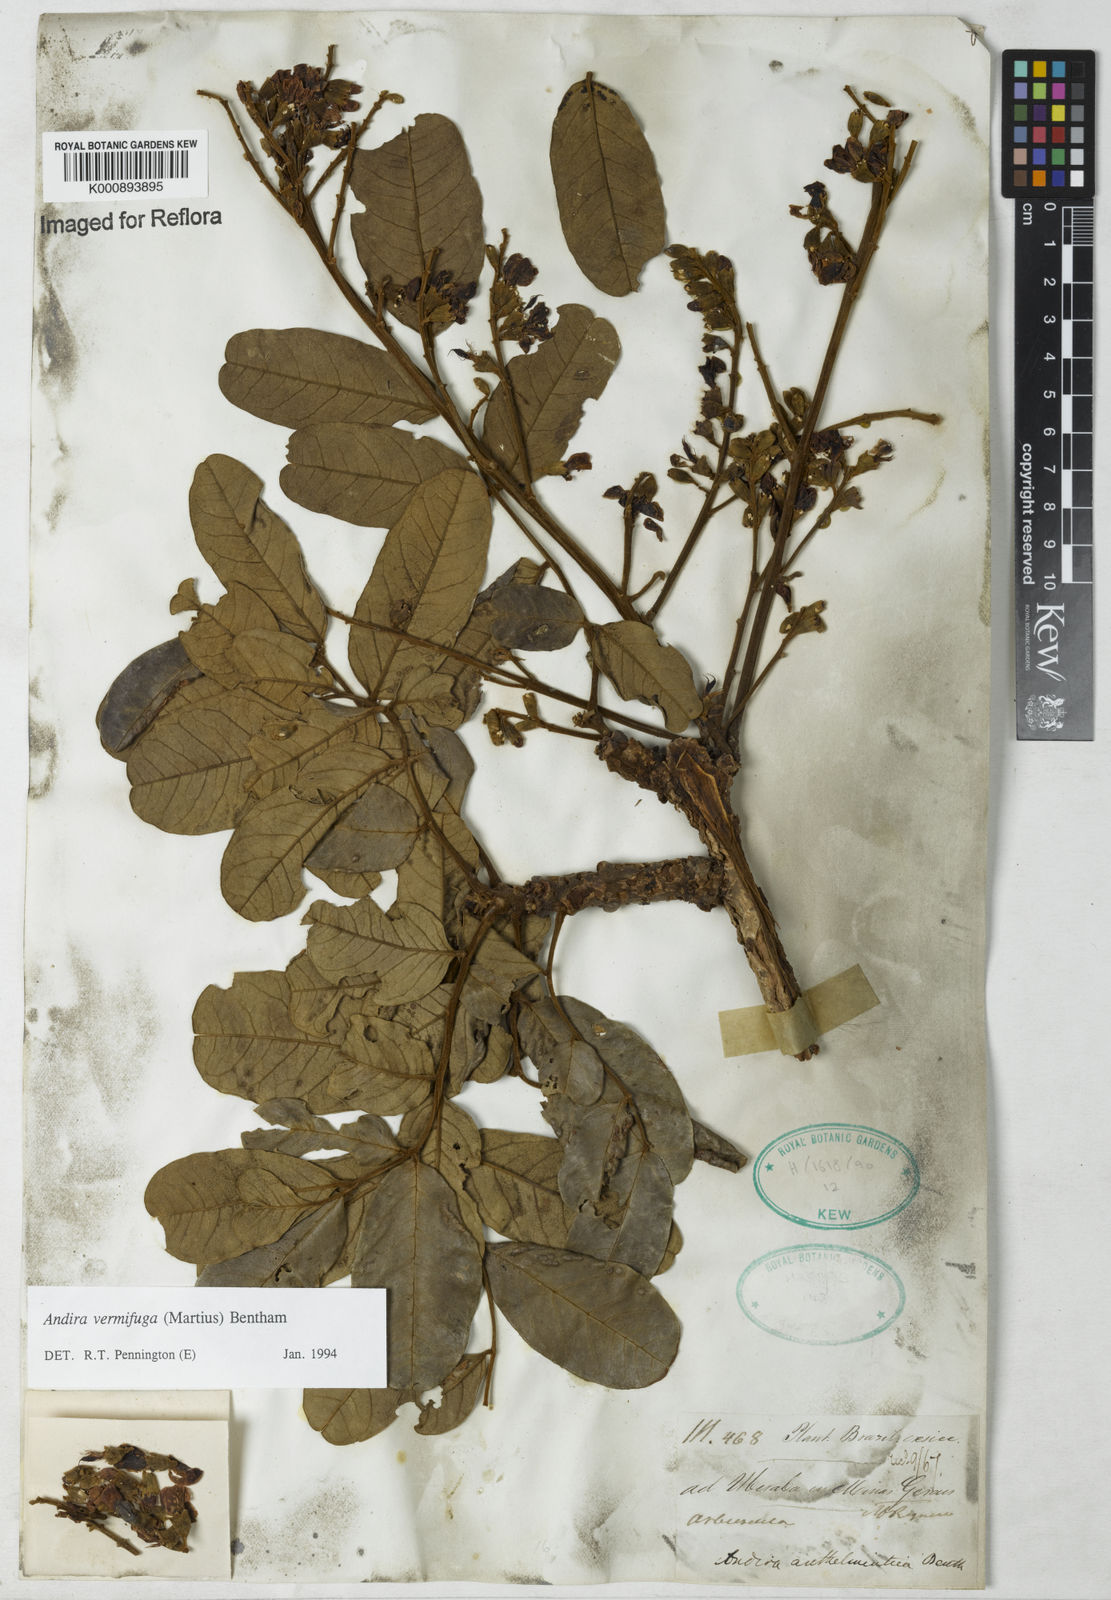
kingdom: Plantae
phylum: Tracheophyta
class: Magnoliopsida
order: Fabales
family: Fabaceae
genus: Andira
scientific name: Andira vermifuga
